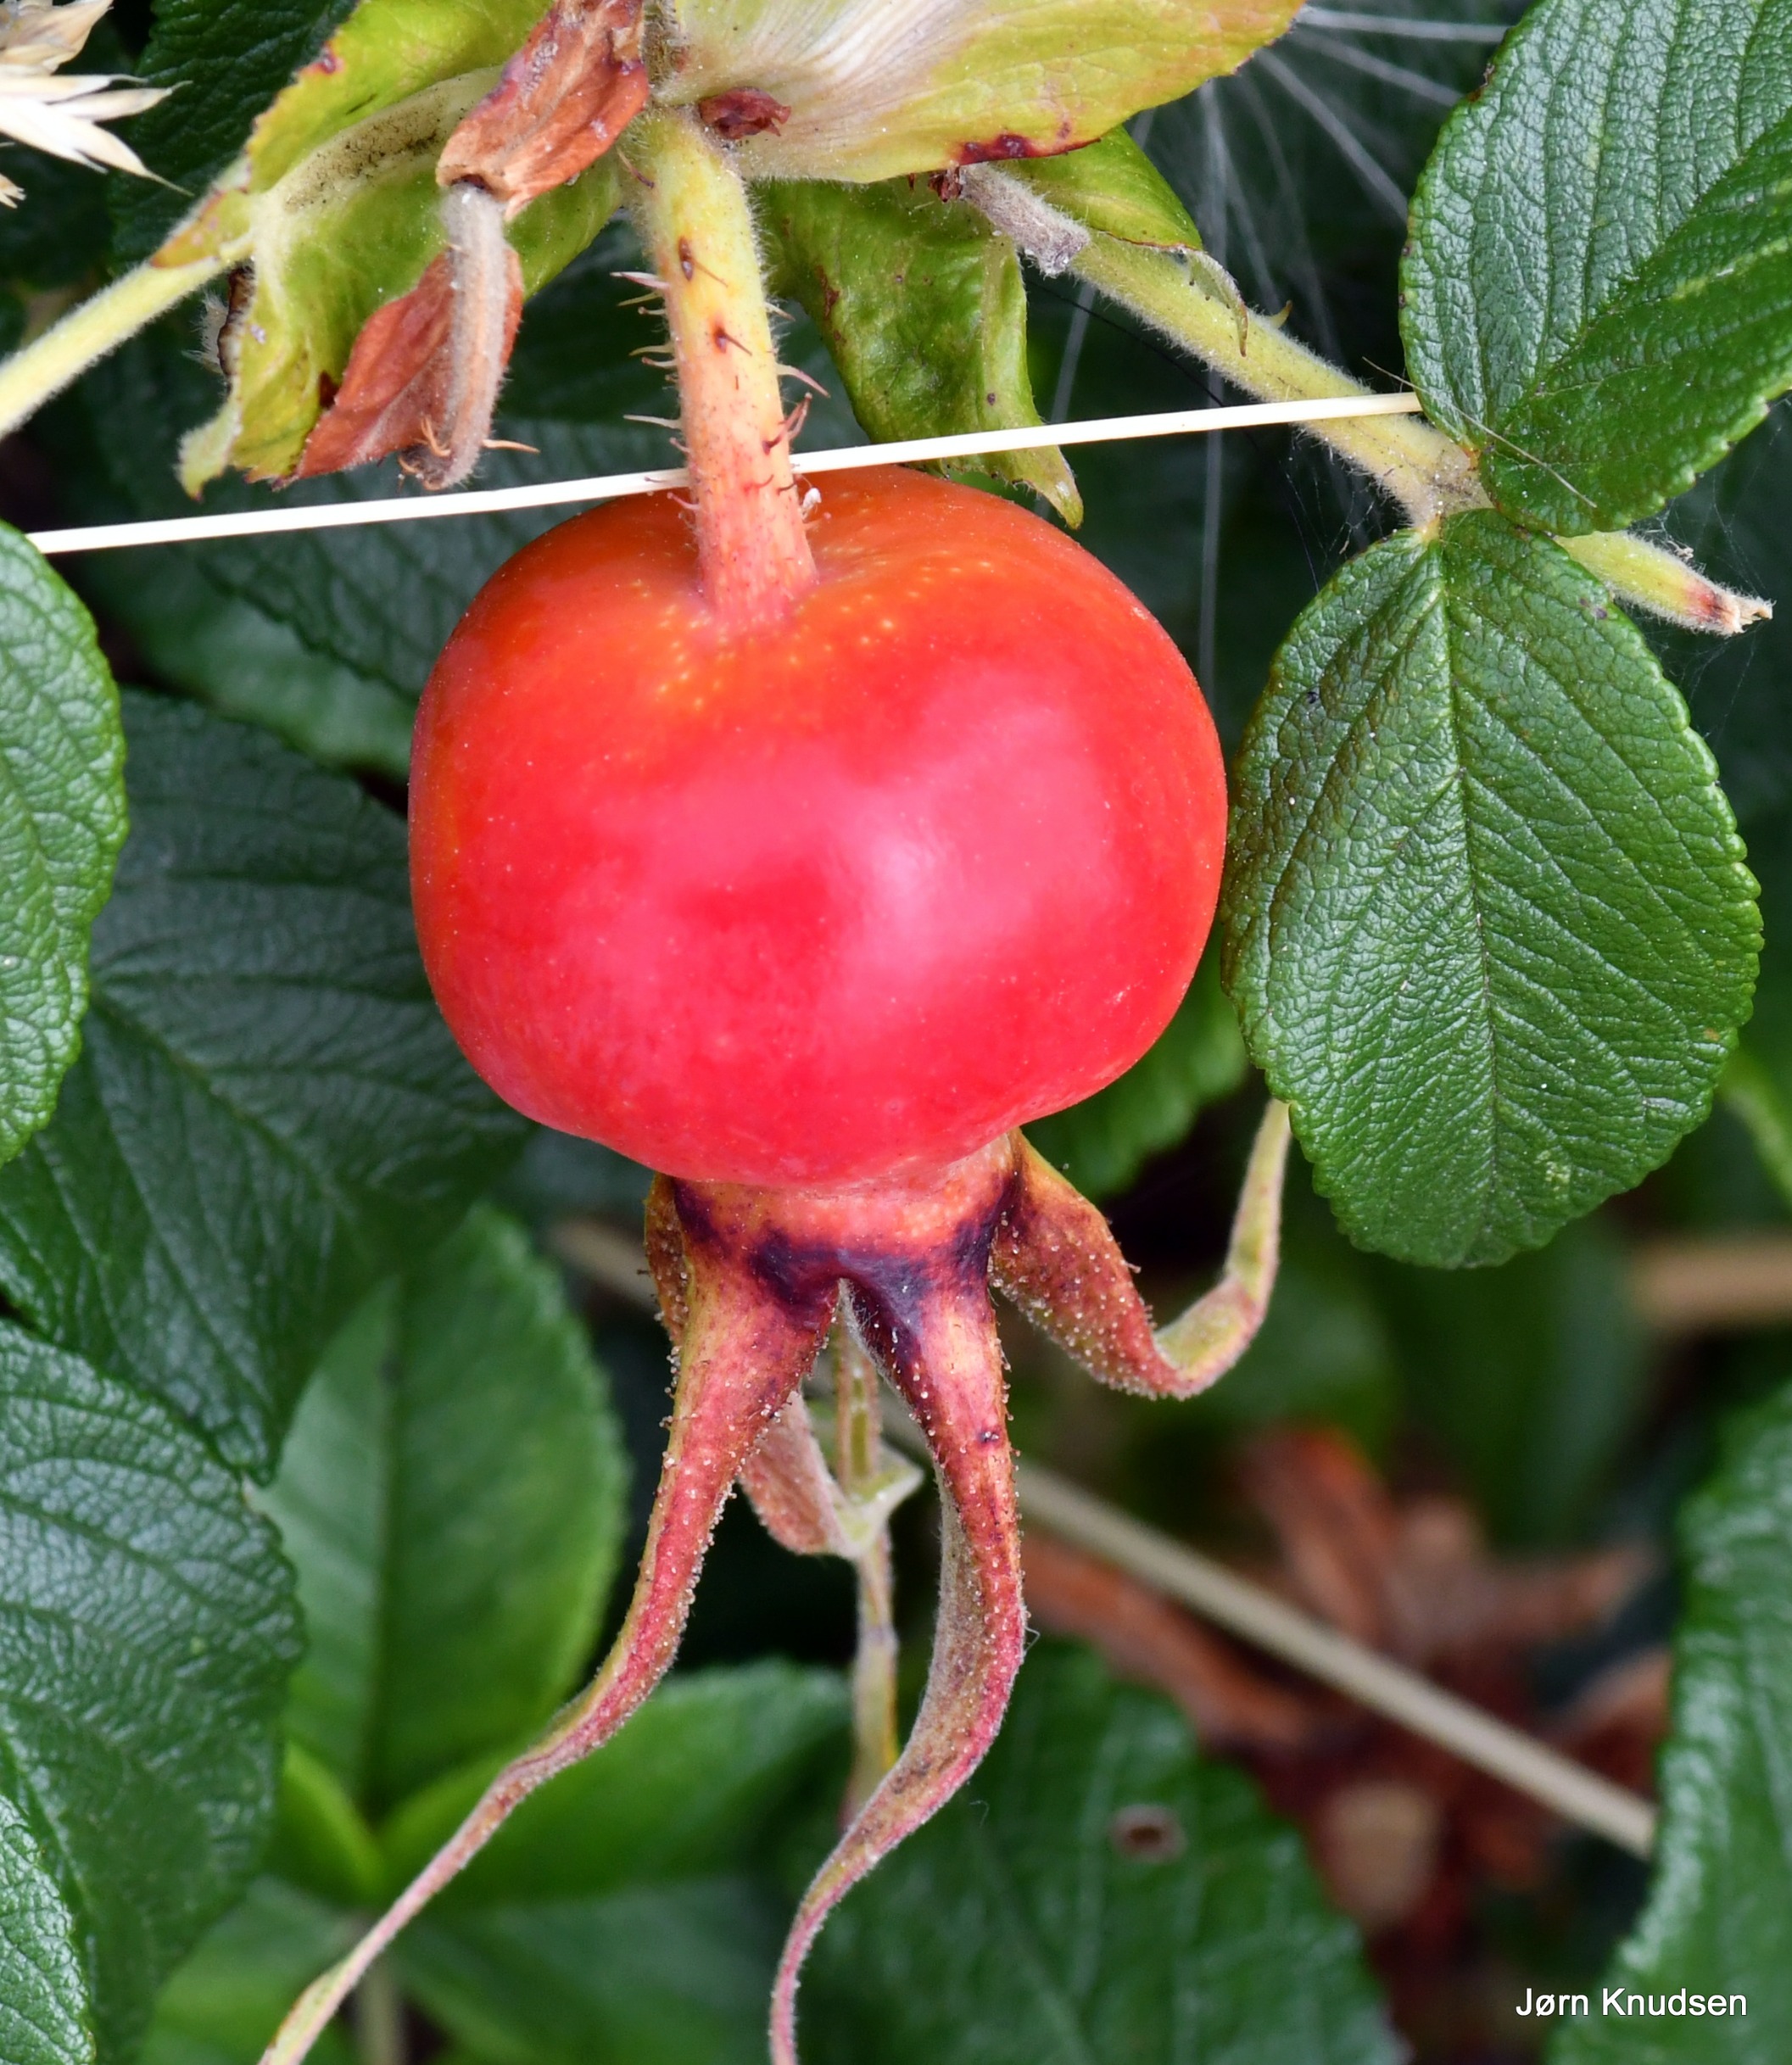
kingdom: Plantae
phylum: Tracheophyta
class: Magnoliopsida
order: Rosales
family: Rosaceae
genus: Rosa
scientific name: Rosa rugosa
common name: Rynket rose
